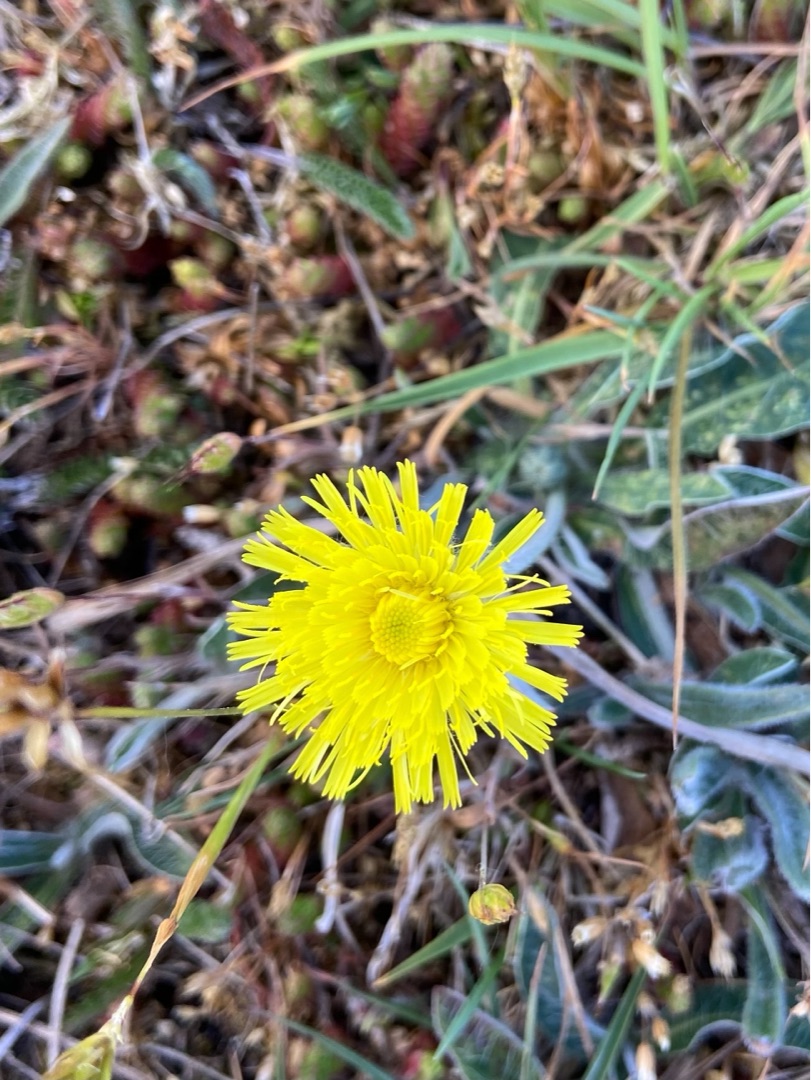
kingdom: Plantae
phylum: Tracheophyta
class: Magnoliopsida
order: Asterales
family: Asteraceae
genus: Pilosella
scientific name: Pilosella officinarum
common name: Håret høgeurt
